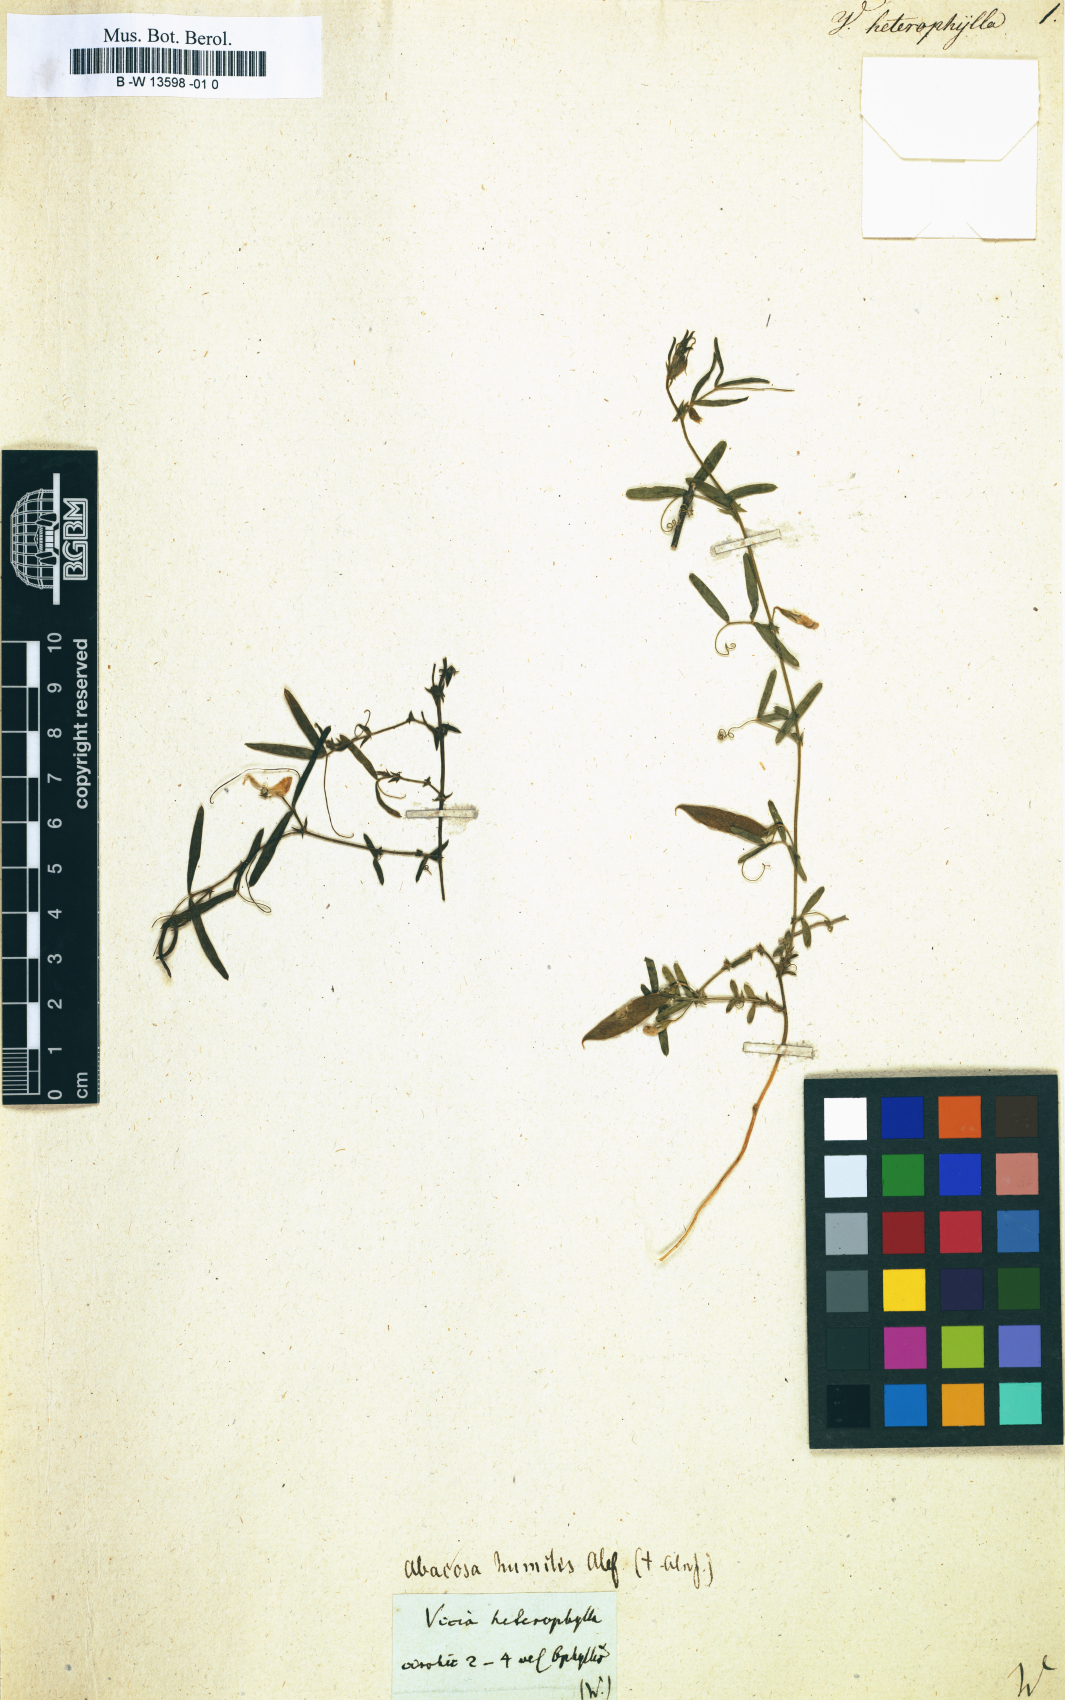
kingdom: Plantae
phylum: Tracheophyta
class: Magnoliopsida
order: Fabales
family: Fabaceae
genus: Vicia
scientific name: Vicia
